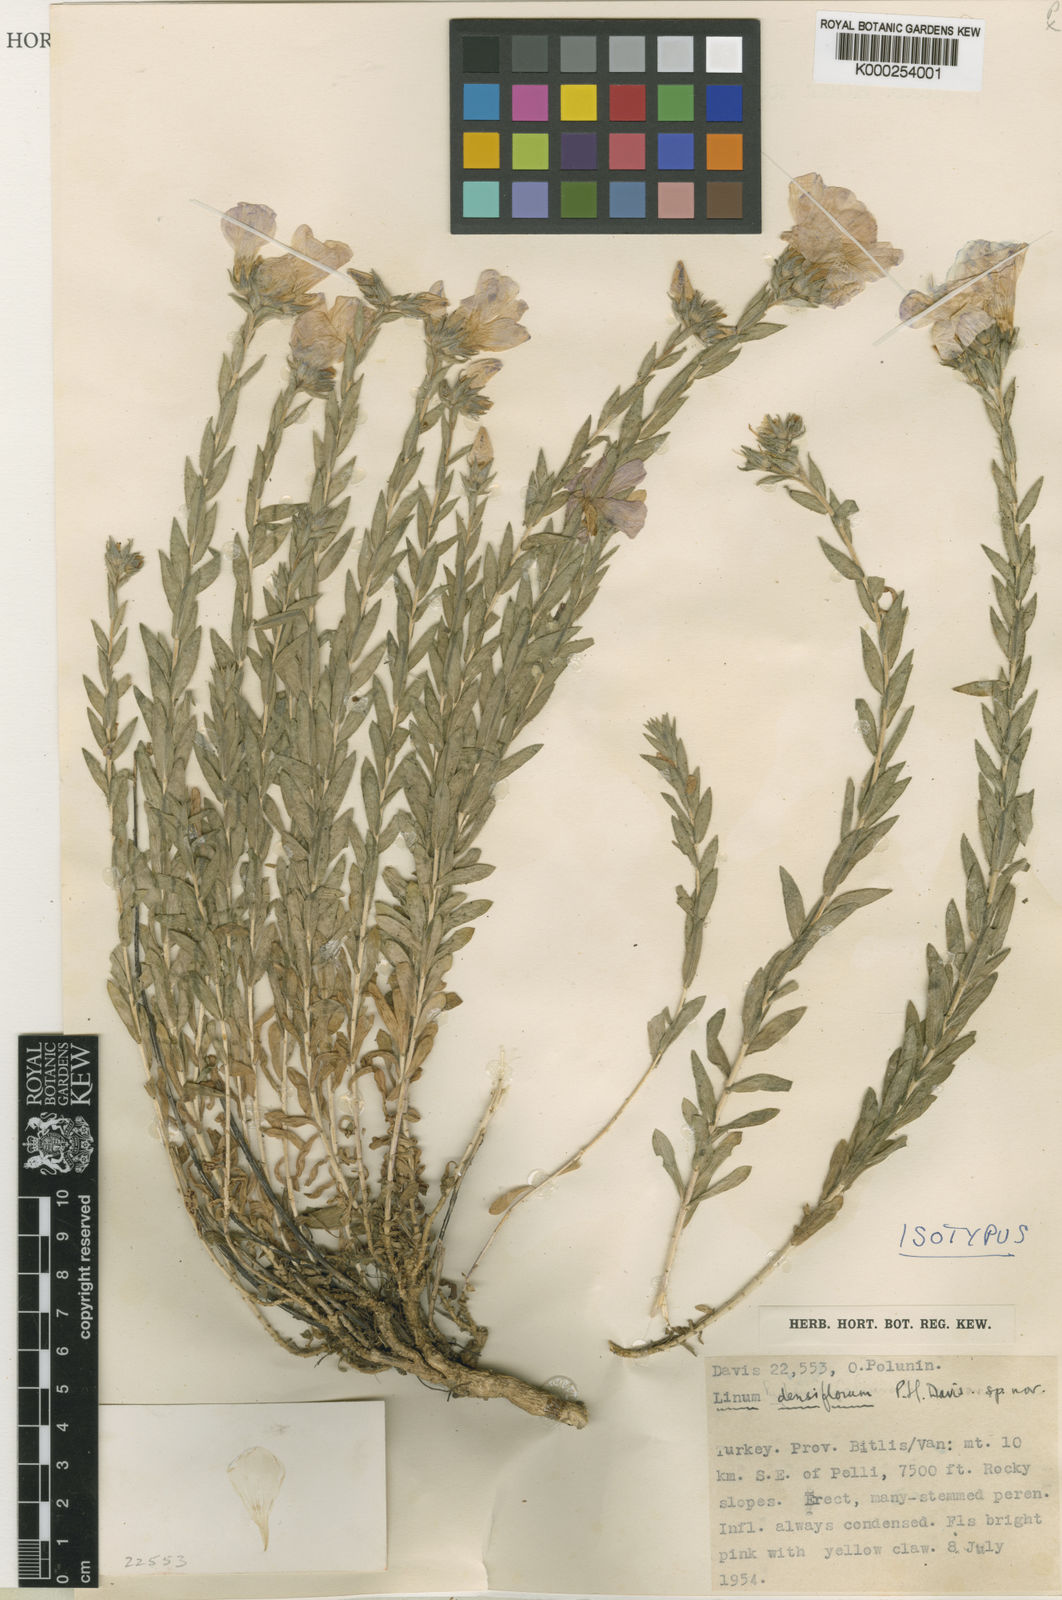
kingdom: Plantae
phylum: Tracheophyta
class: Magnoliopsida
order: Malpighiales
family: Linaceae
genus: Linum
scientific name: Linum densiflorum
